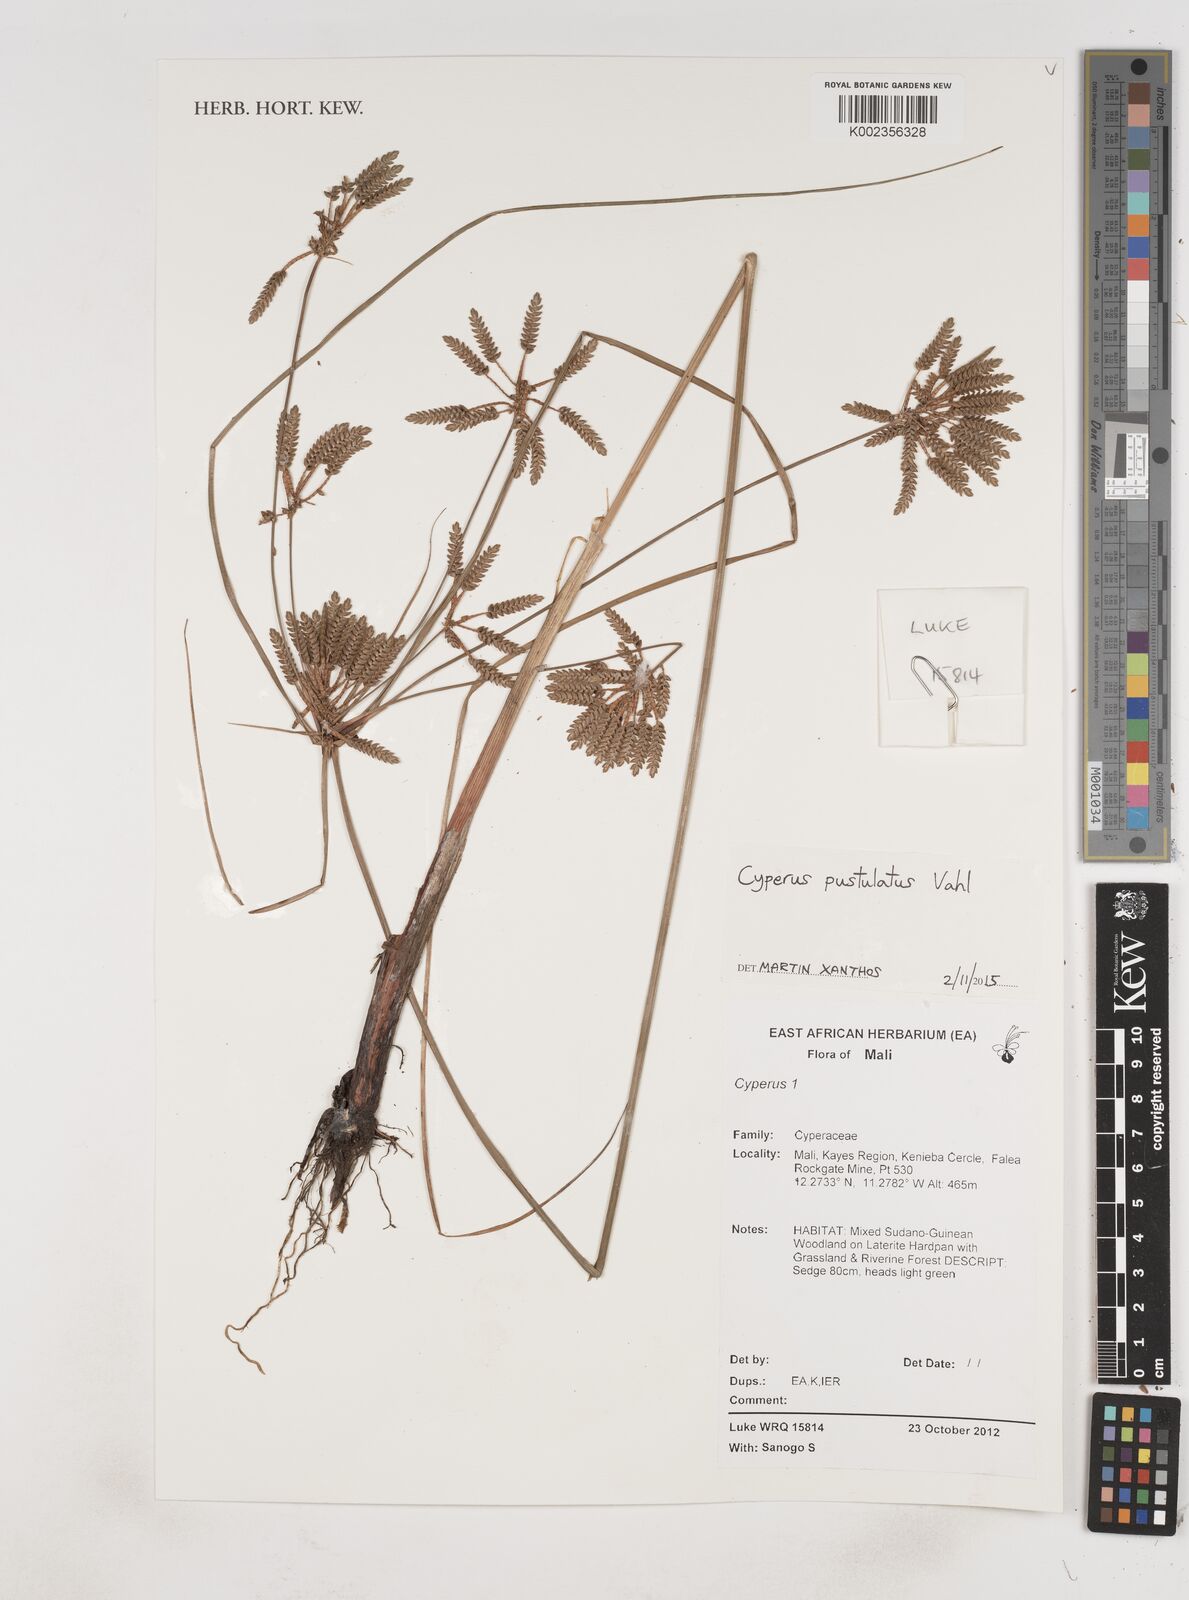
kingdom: Plantae
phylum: Tracheophyta
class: Liliopsida
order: Poales
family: Cyperaceae
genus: Cyperus
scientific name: Cyperus pustulatus
